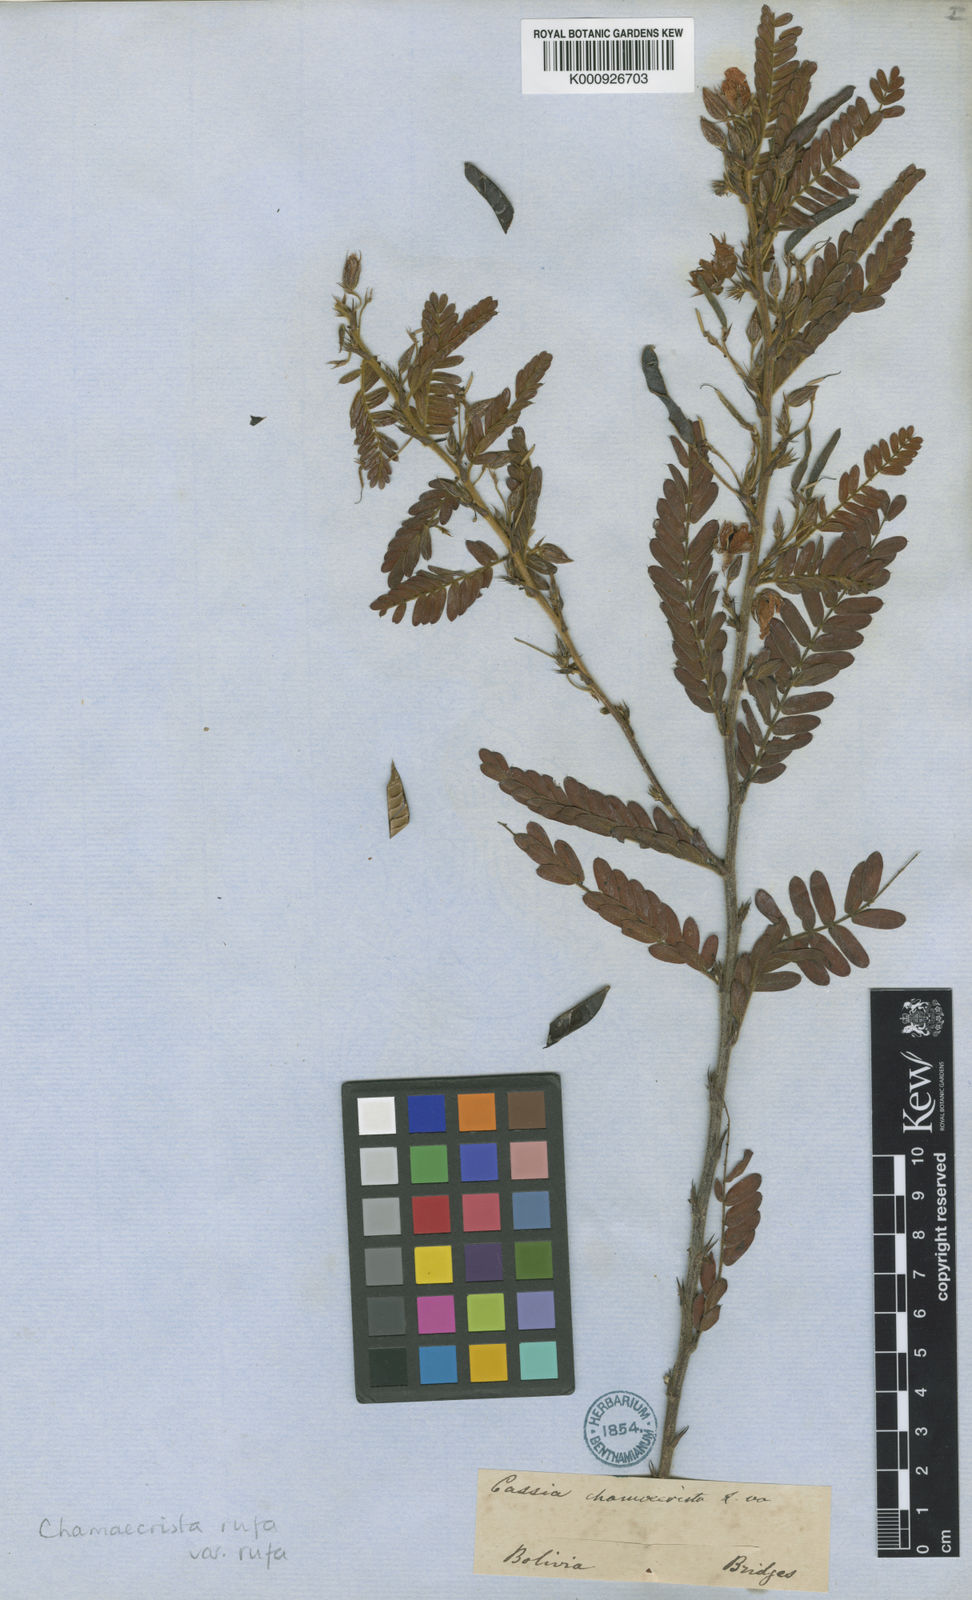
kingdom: Plantae
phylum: Tracheophyta
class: Magnoliopsida
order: Fabales
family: Fabaceae
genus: Chamaecrista
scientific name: Chamaecrista rufa
